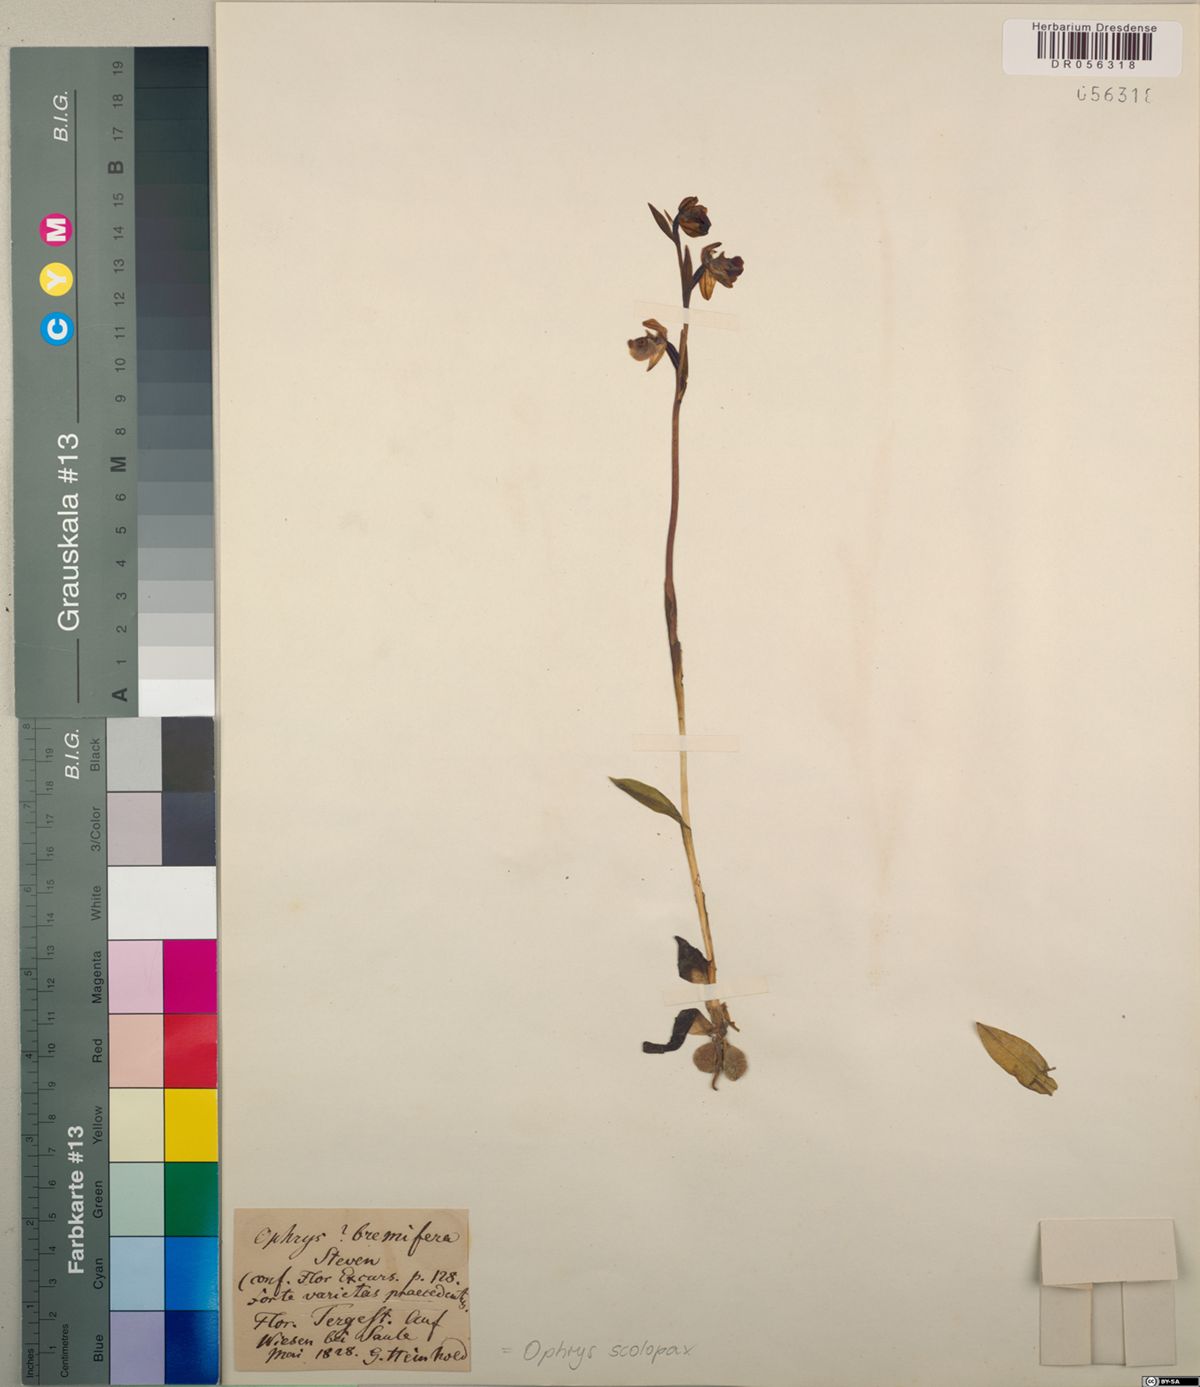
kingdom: Plantae
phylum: Tracheophyta
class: Liliopsida
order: Asparagales
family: Orchidaceae
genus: Ophrys
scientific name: Ophrys scolopax
